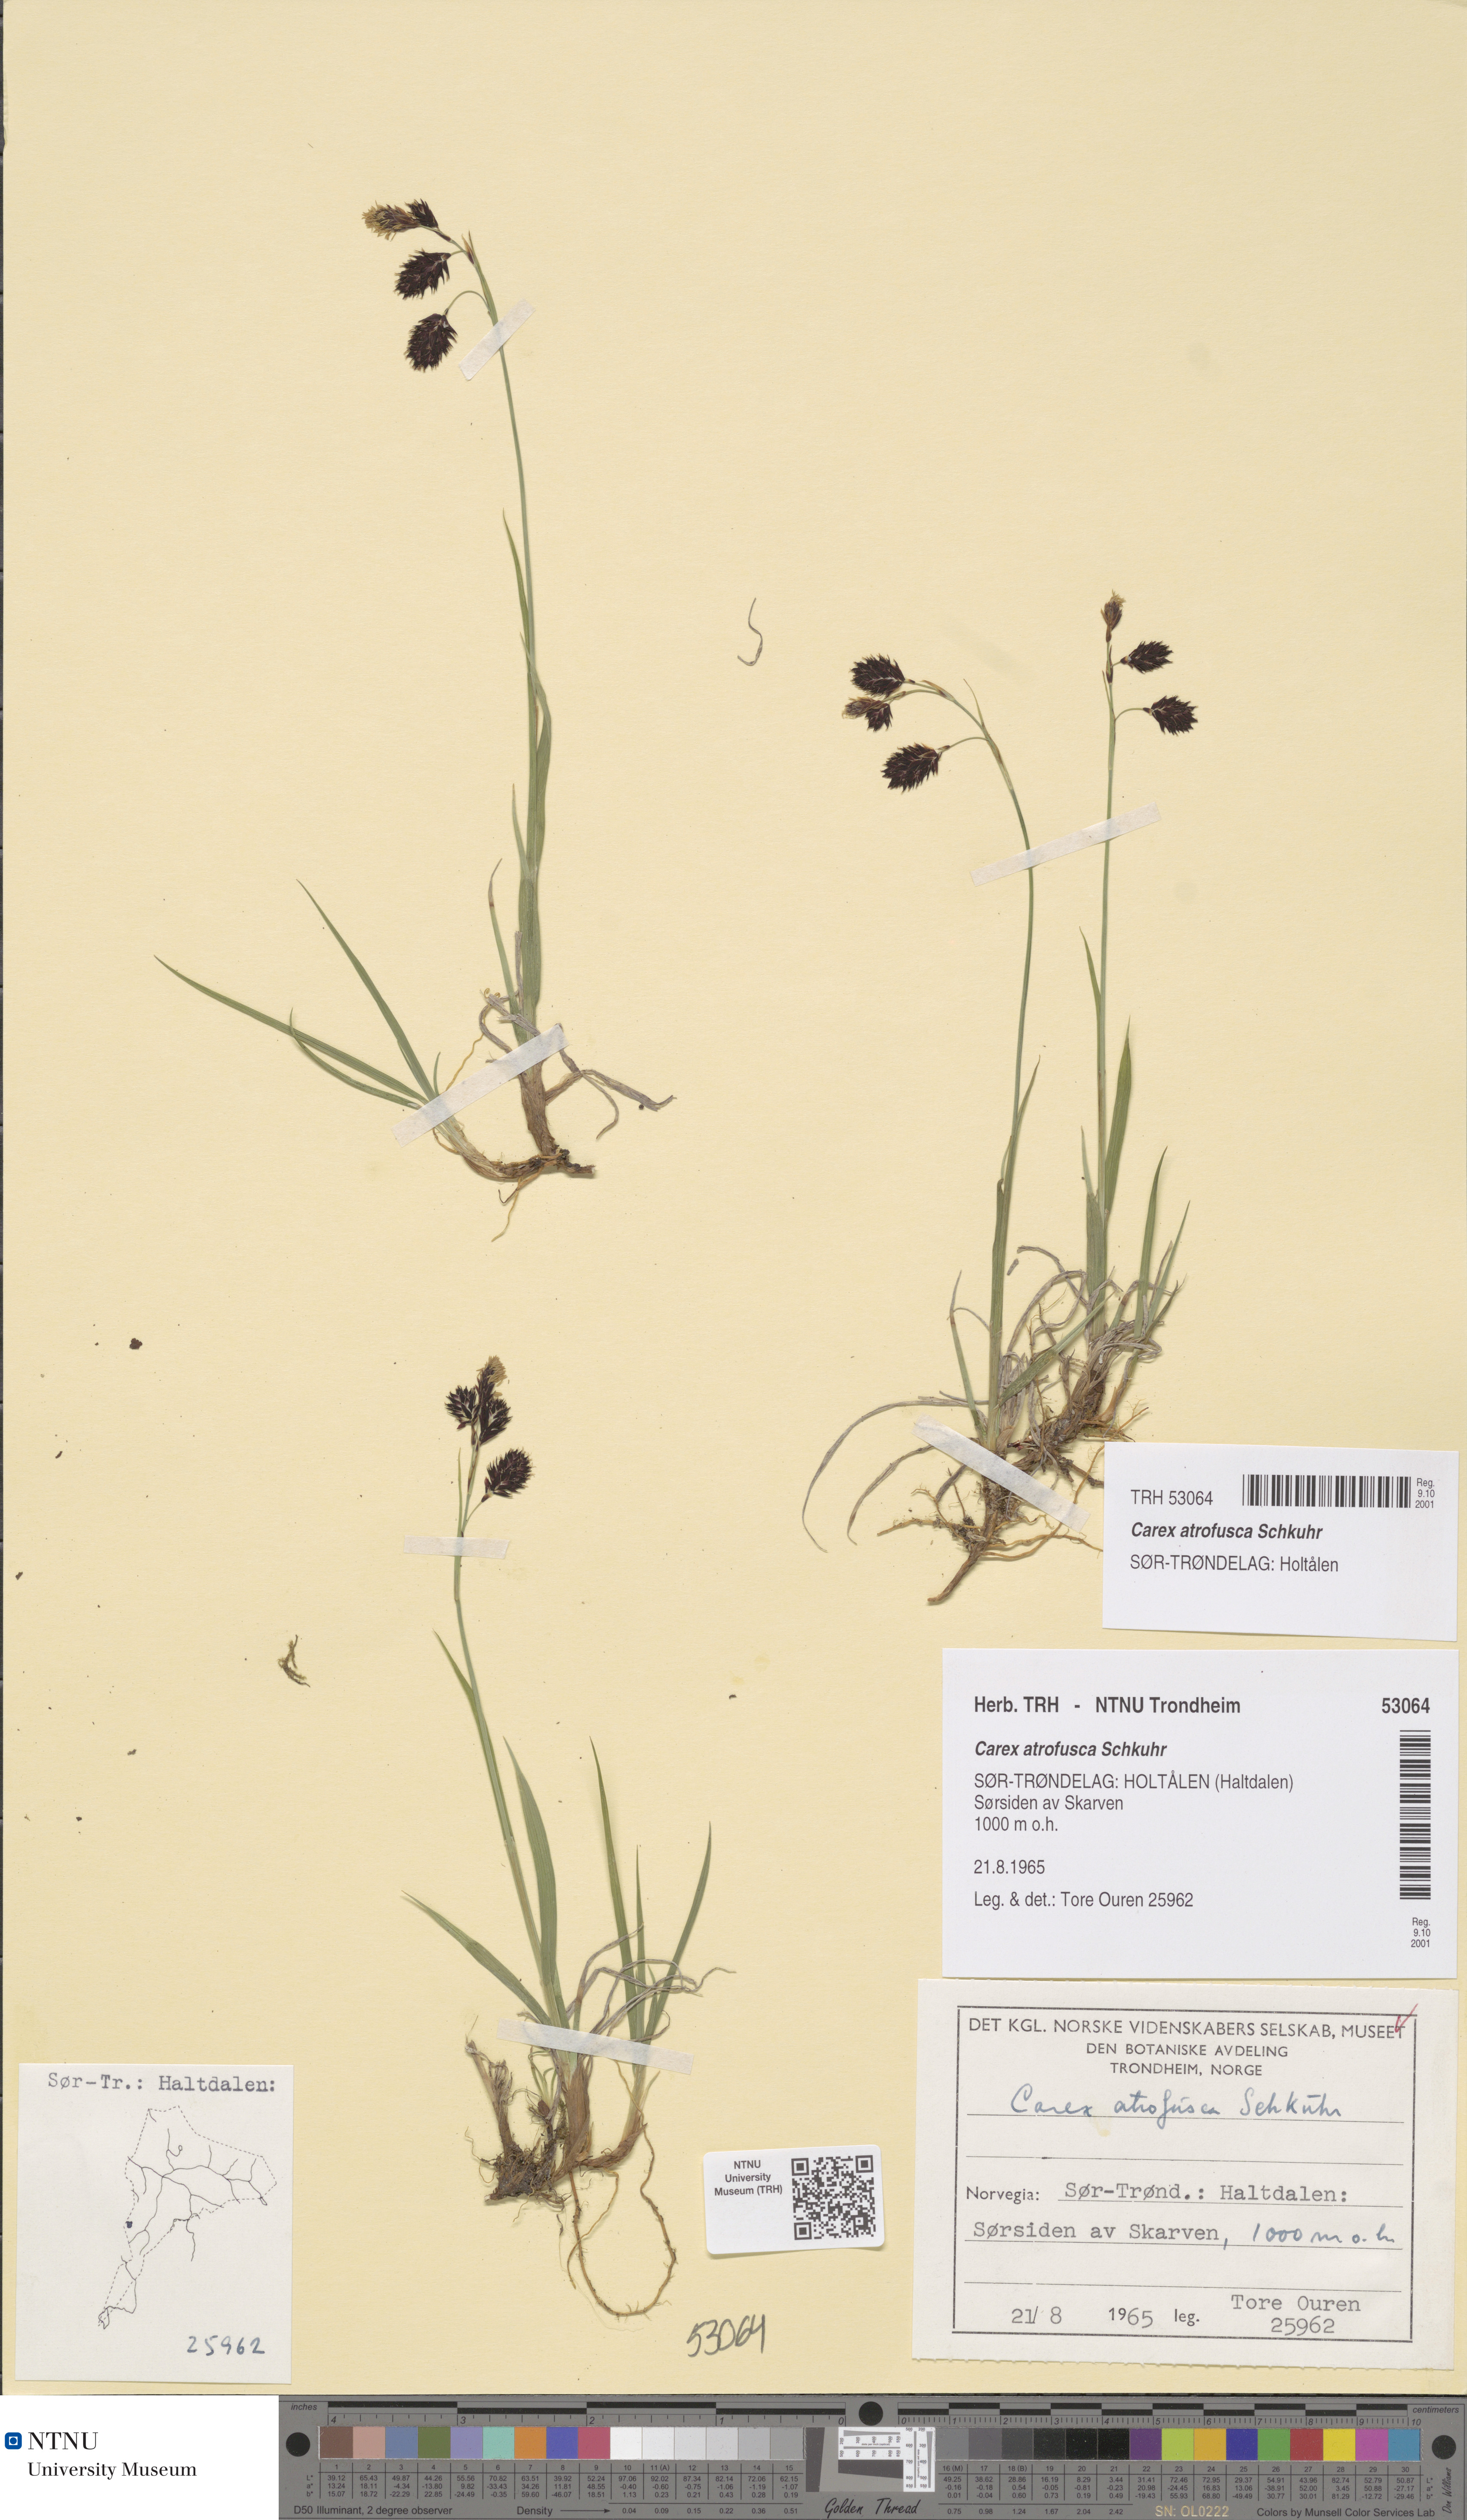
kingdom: Plantae
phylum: Tracheophyta
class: Liliopsida
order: Poales
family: Cyperaceae
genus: Carex
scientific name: Carex atrofusca
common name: Scorched alpine-sedge
